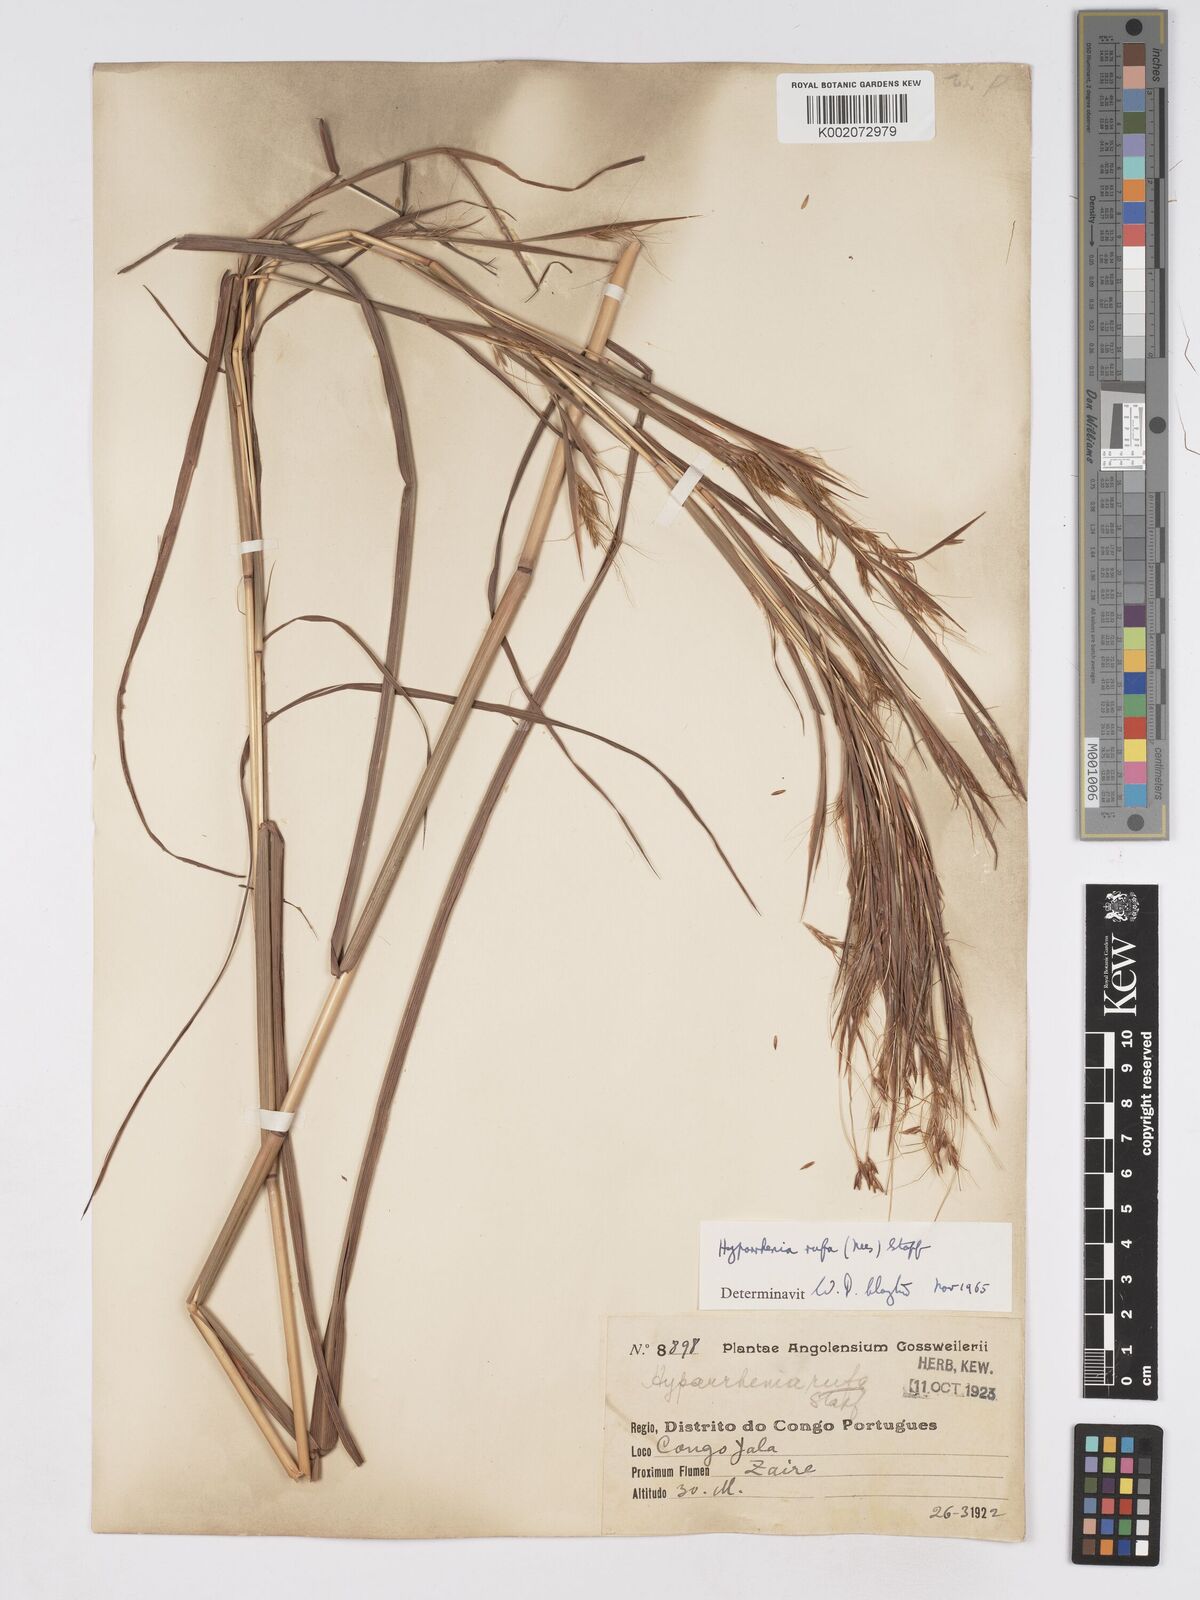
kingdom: Plantae
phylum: Tracheophyta
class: Liliopsida
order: Poales
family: Poaceae
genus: Hyparrhenia
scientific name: Hyparrhenia rufa
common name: Jaraguagrass
